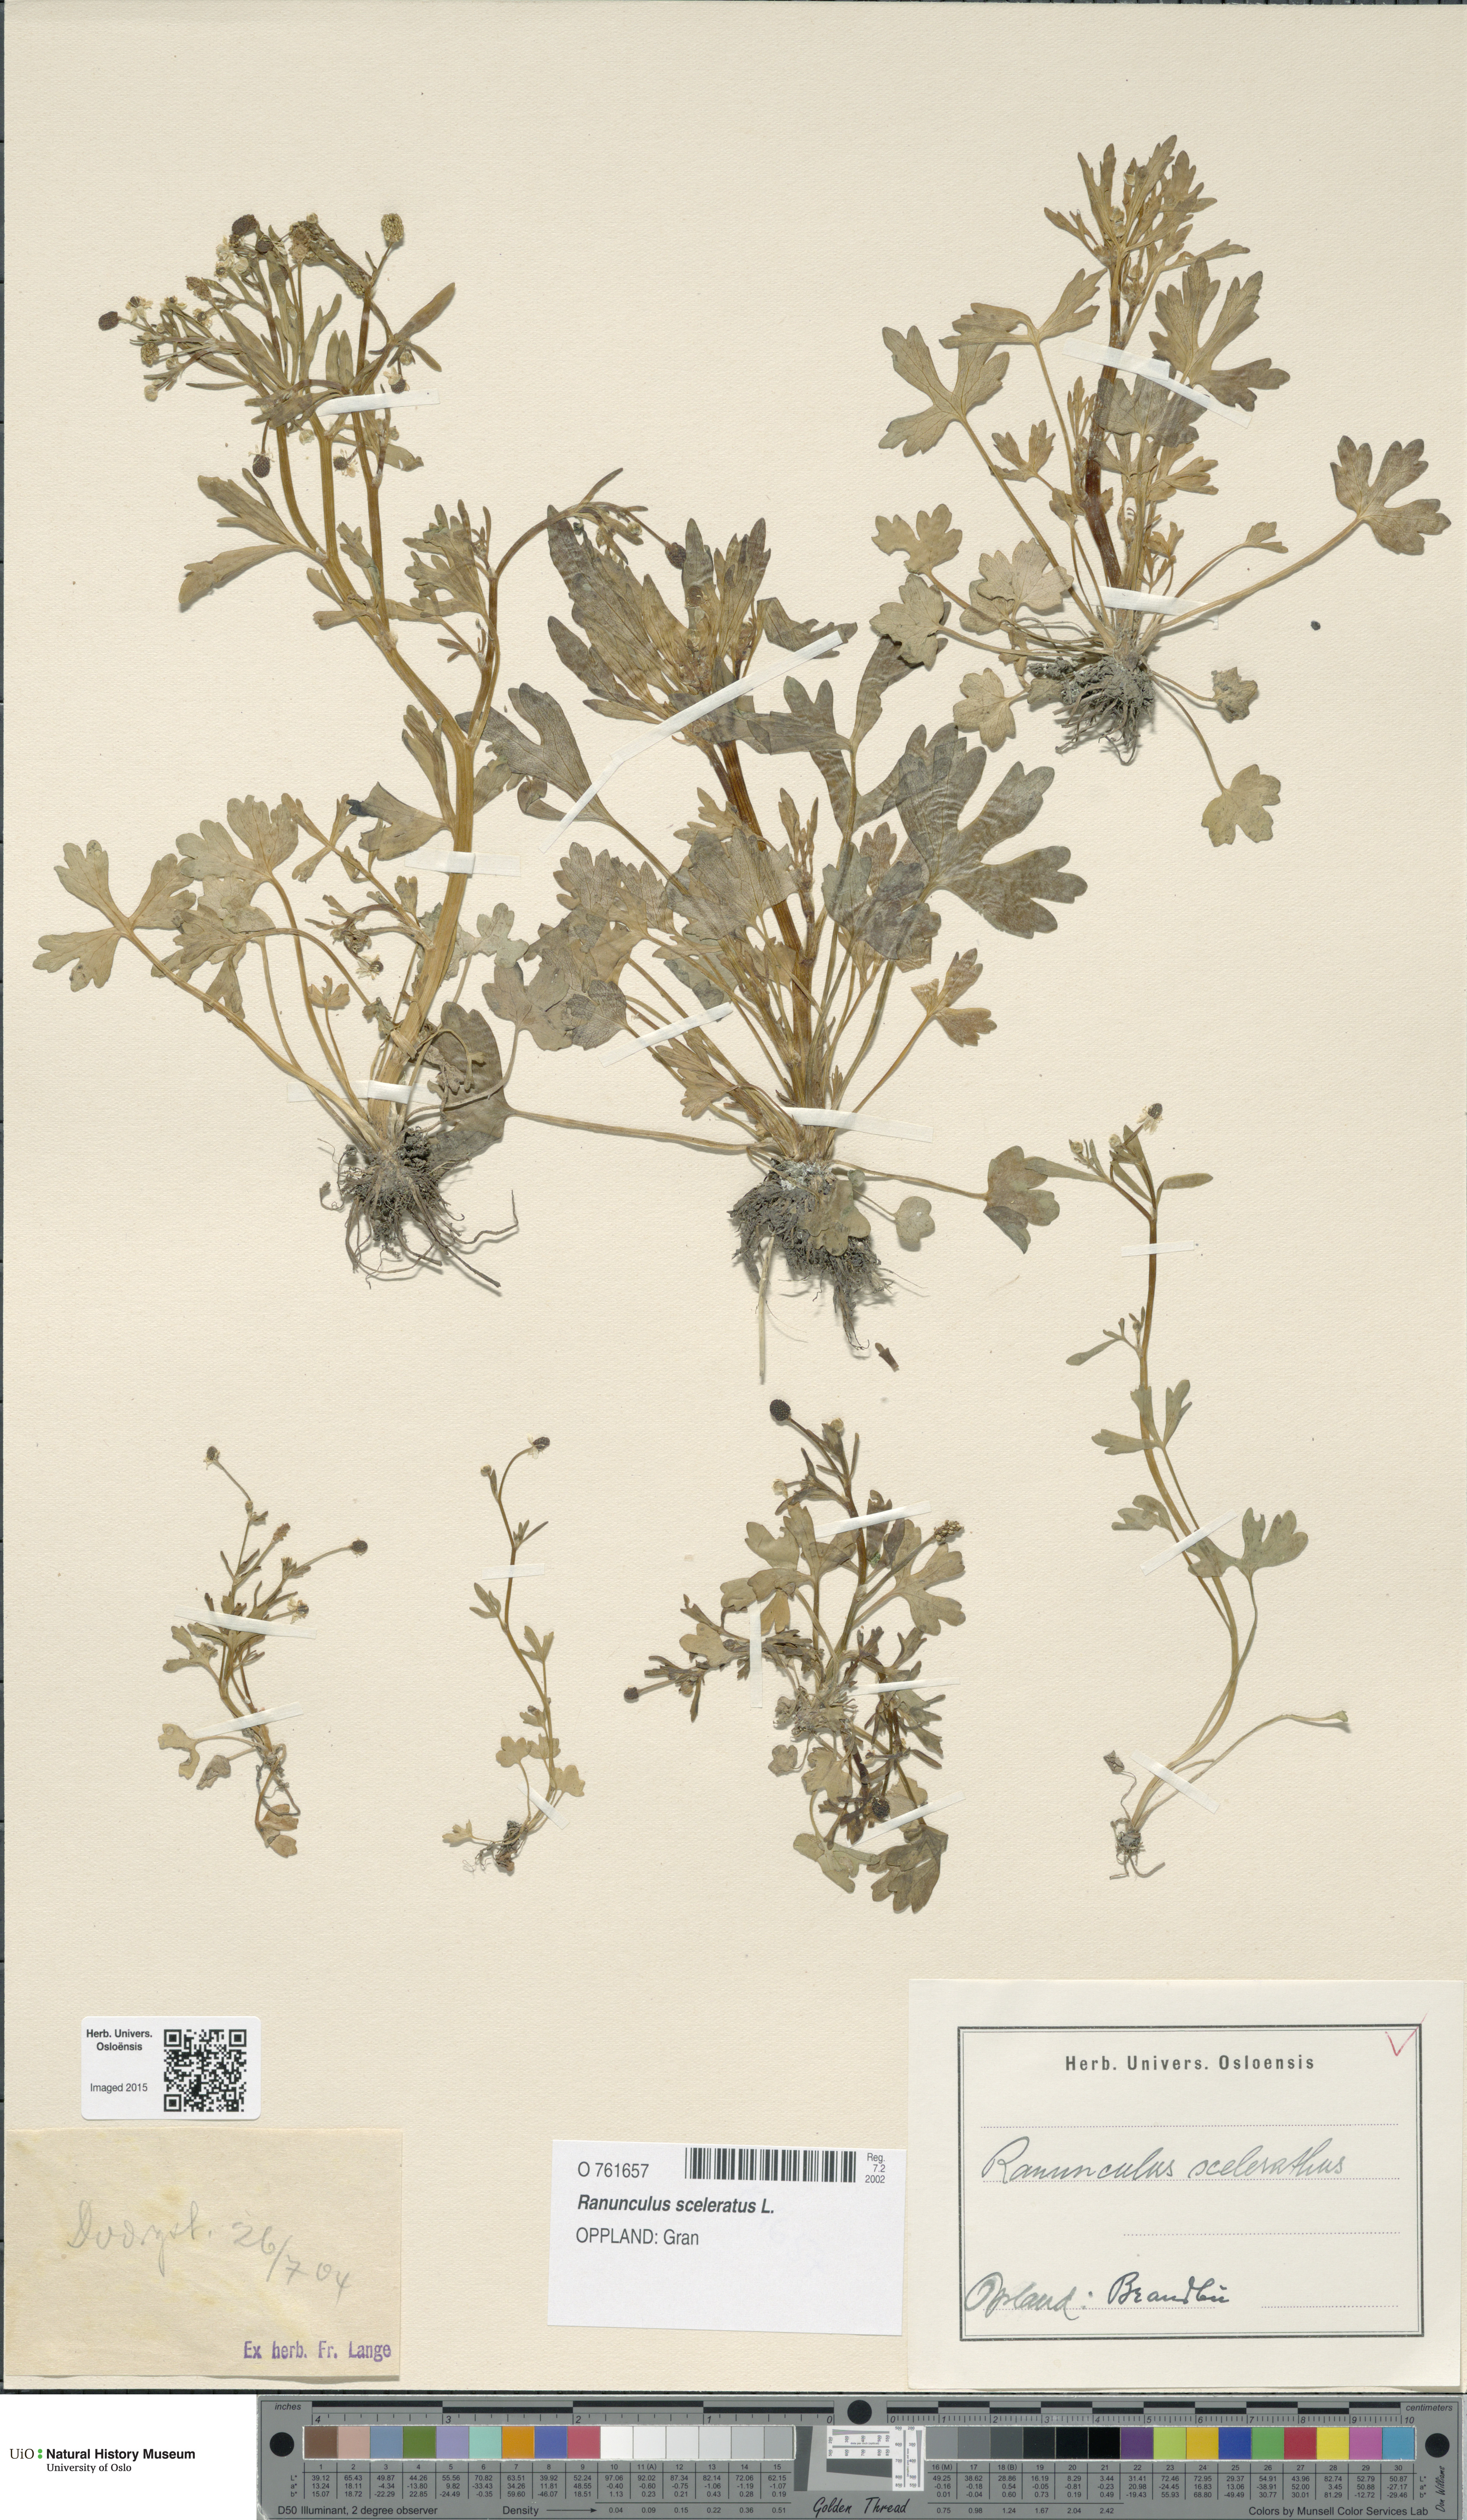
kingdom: Plantae
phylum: Tracheophyta
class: Magnoliopsida
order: Ranunculales
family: Ranunculaceae
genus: Ranunculus
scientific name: Ranunculus sceleratus
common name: Celery-leaved buttercup
